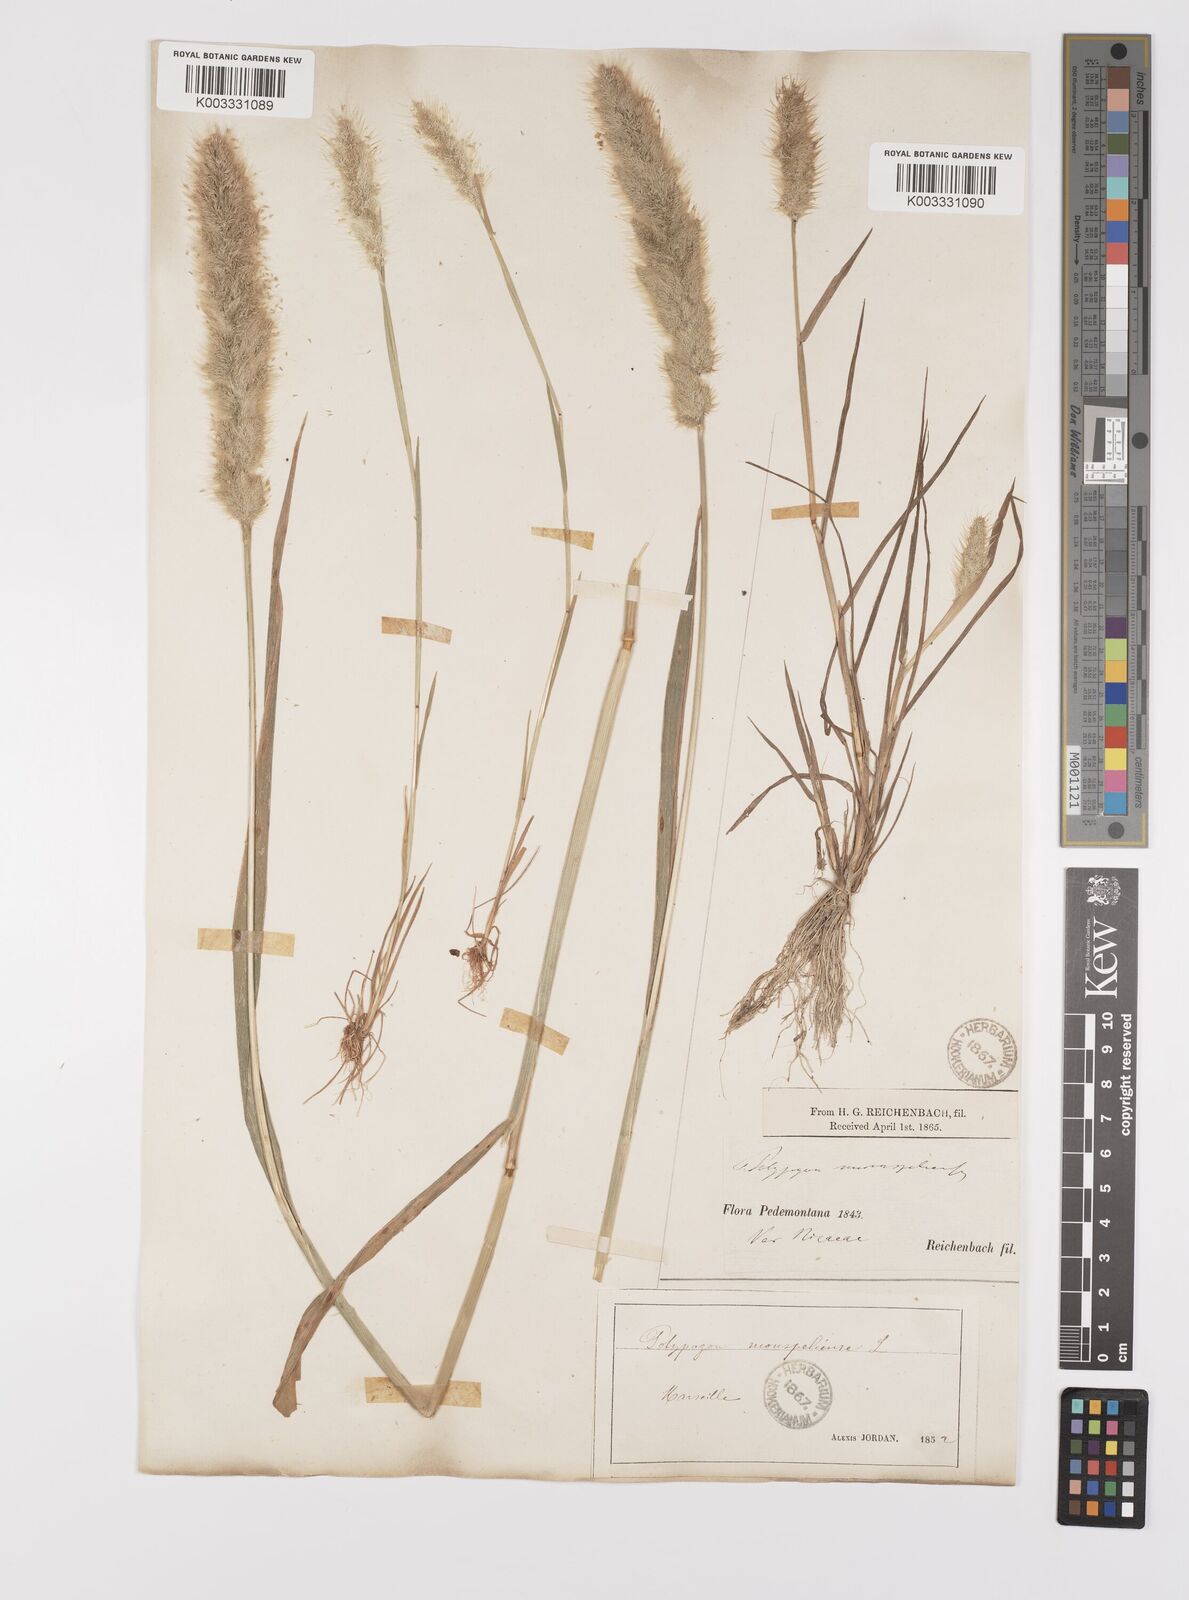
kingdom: Plantae
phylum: Tracheophyta
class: Liliopsida
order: Poales
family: Poaceae
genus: Polypogon
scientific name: Polypogon monspeliensis
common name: Annual rabbitsfoot grass
